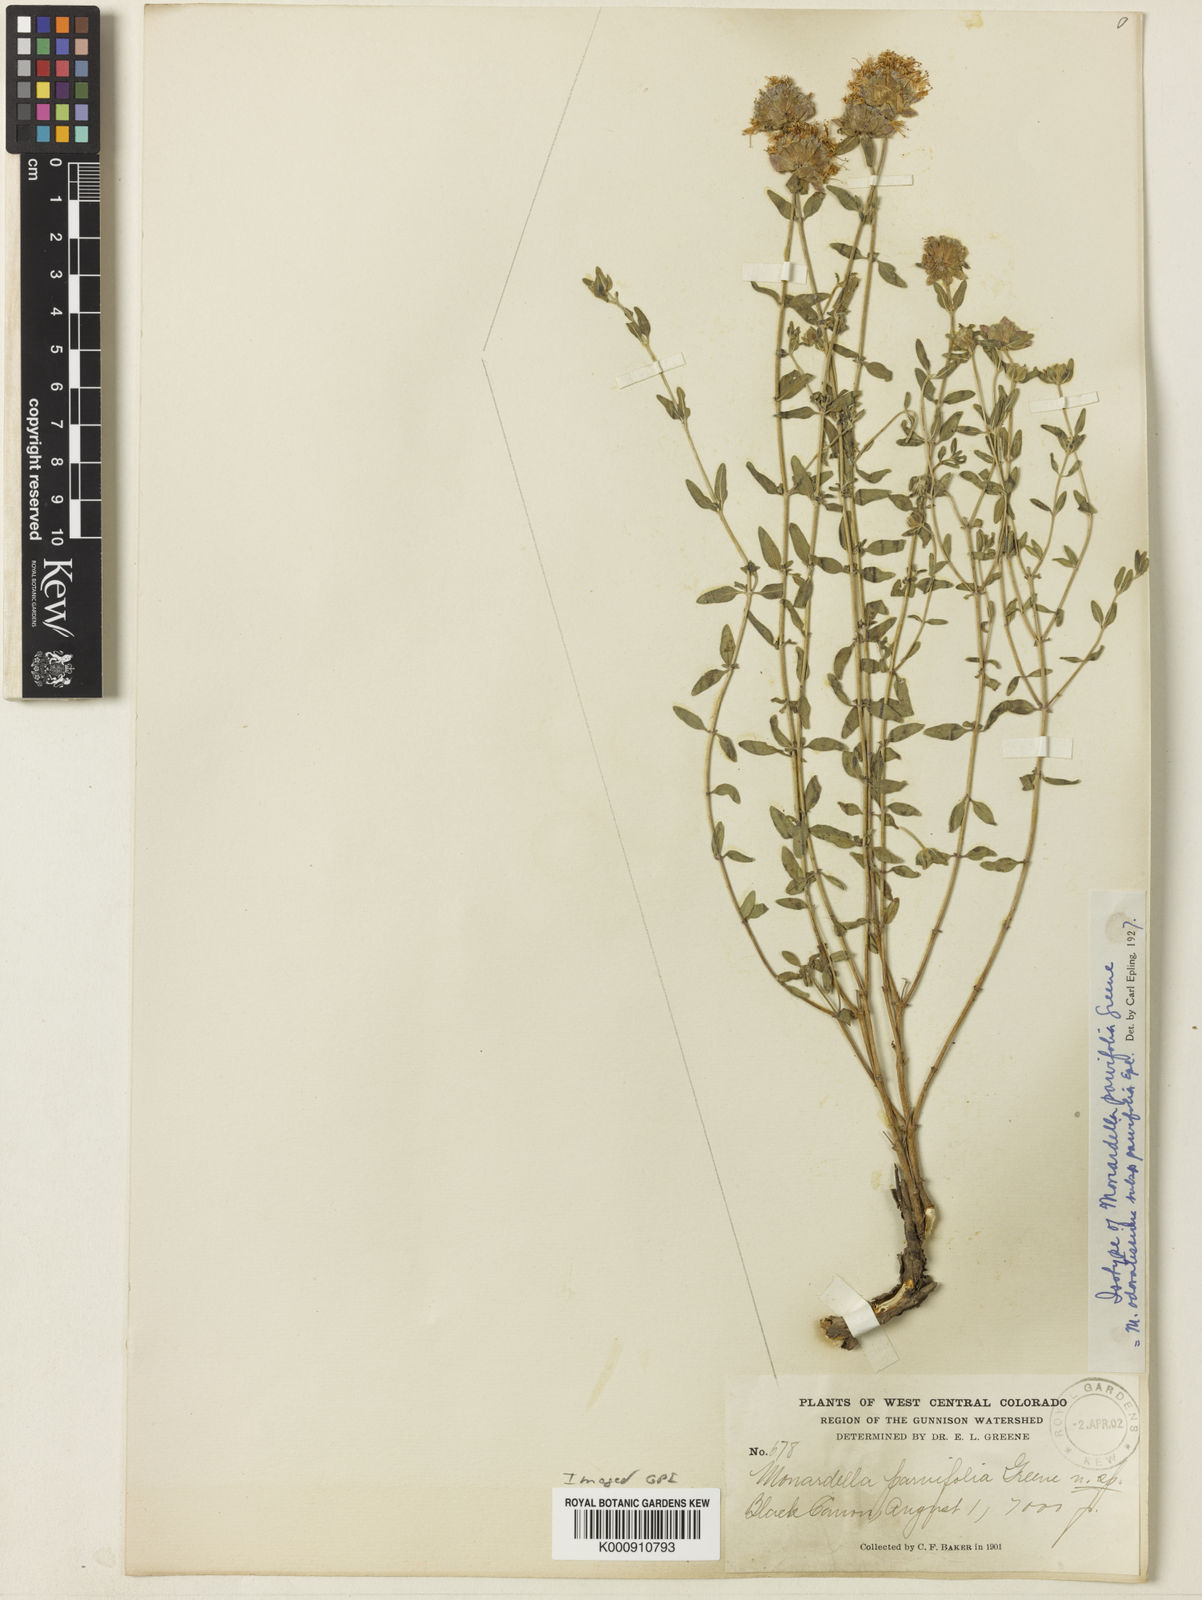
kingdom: Plantae
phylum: Tracheophyta
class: Magnoliopsida
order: Lamiales
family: Lamiaceae
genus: Monardella
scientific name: Monardella odoratissima
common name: Pacific monardella
